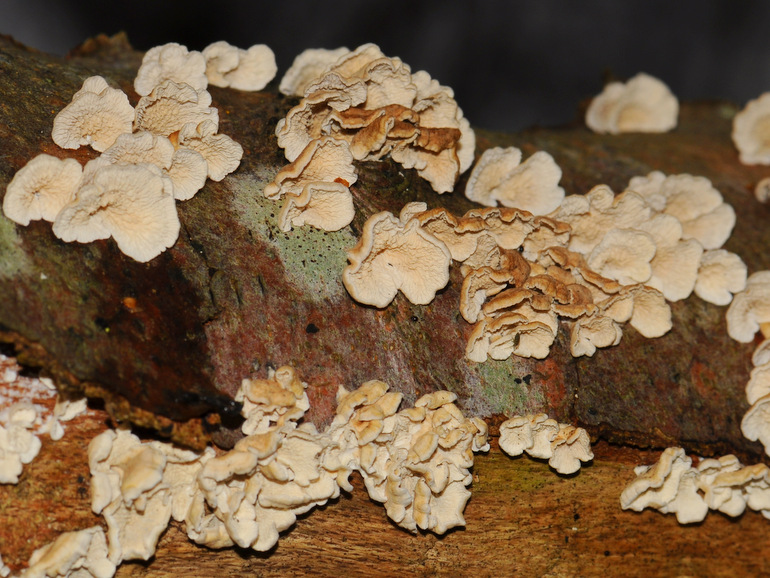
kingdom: Fungi
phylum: Basidiomycota
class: Agaricomycetes
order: Amylocorticiales
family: Amylocorticiaceae
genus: Plicaturopsis
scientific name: Plicaturopsis crispa
